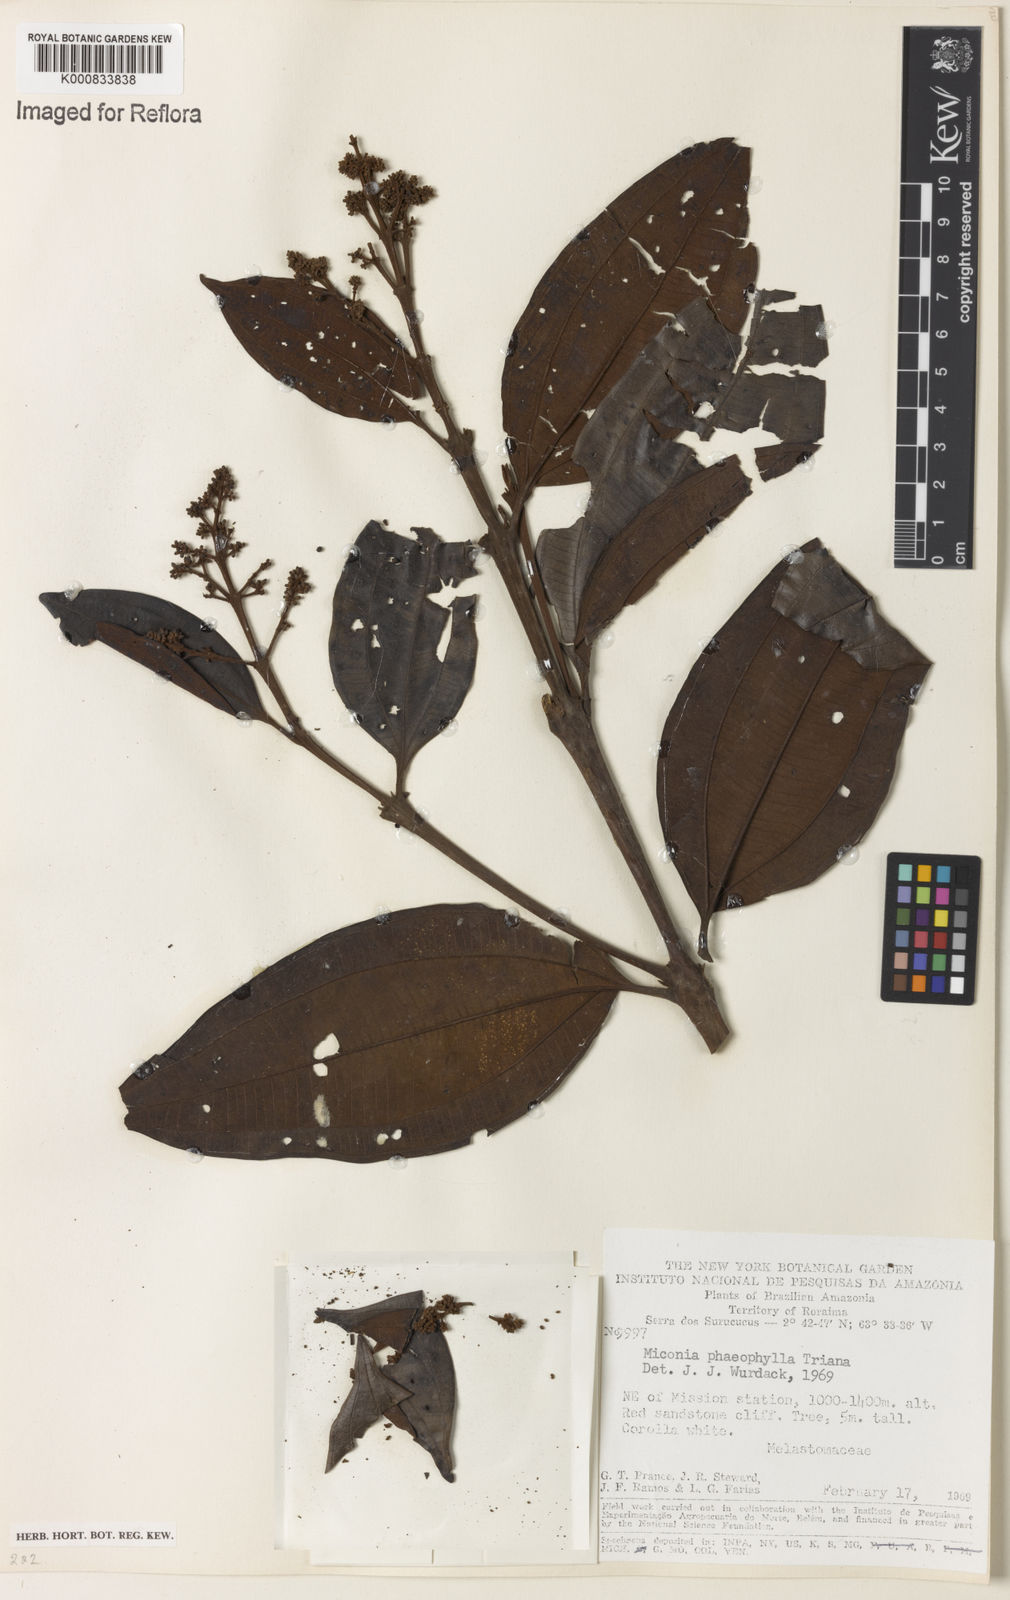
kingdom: Plantae
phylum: Tracheophyta
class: Magnoliopsida
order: Myrtales
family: Melastomataceae
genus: Miconia
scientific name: Miconia phaeophylla
